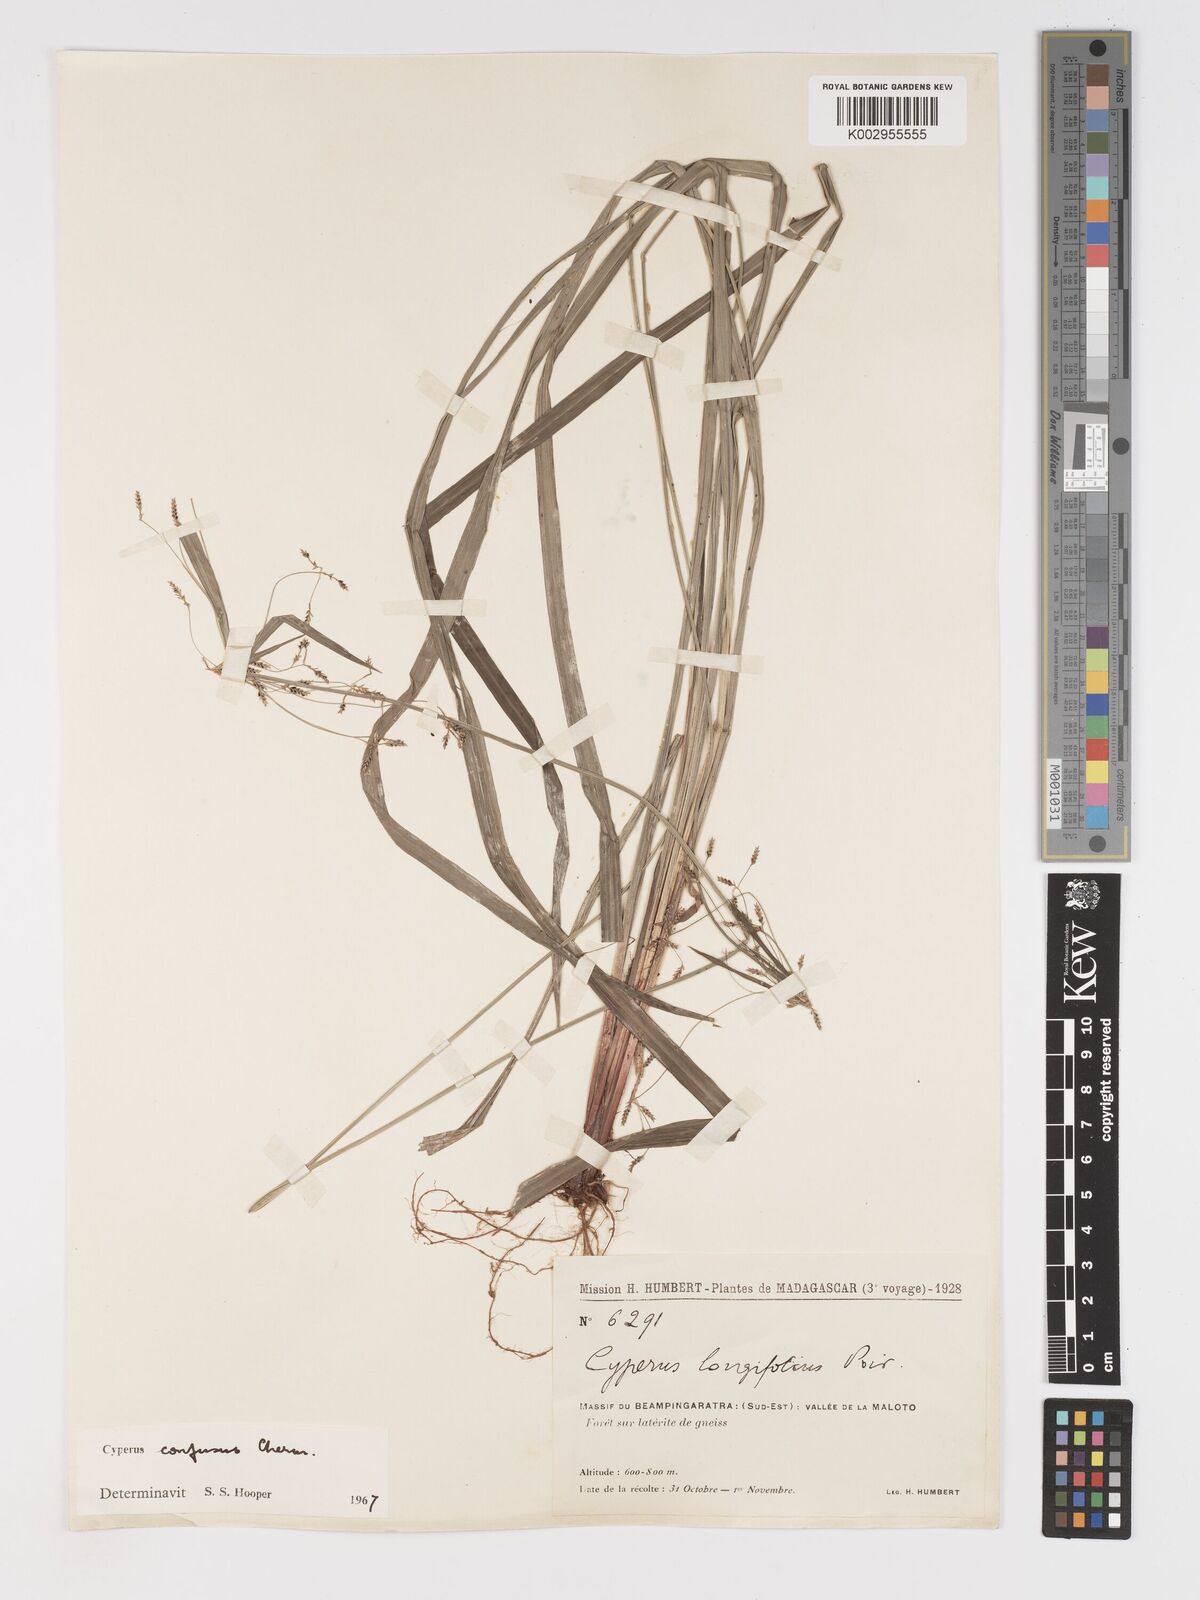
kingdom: Plantae
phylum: Tracheophyta
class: Liliopsida
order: Poales
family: Cyperaceae
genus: Cyperus
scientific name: Cyperus longifolius
